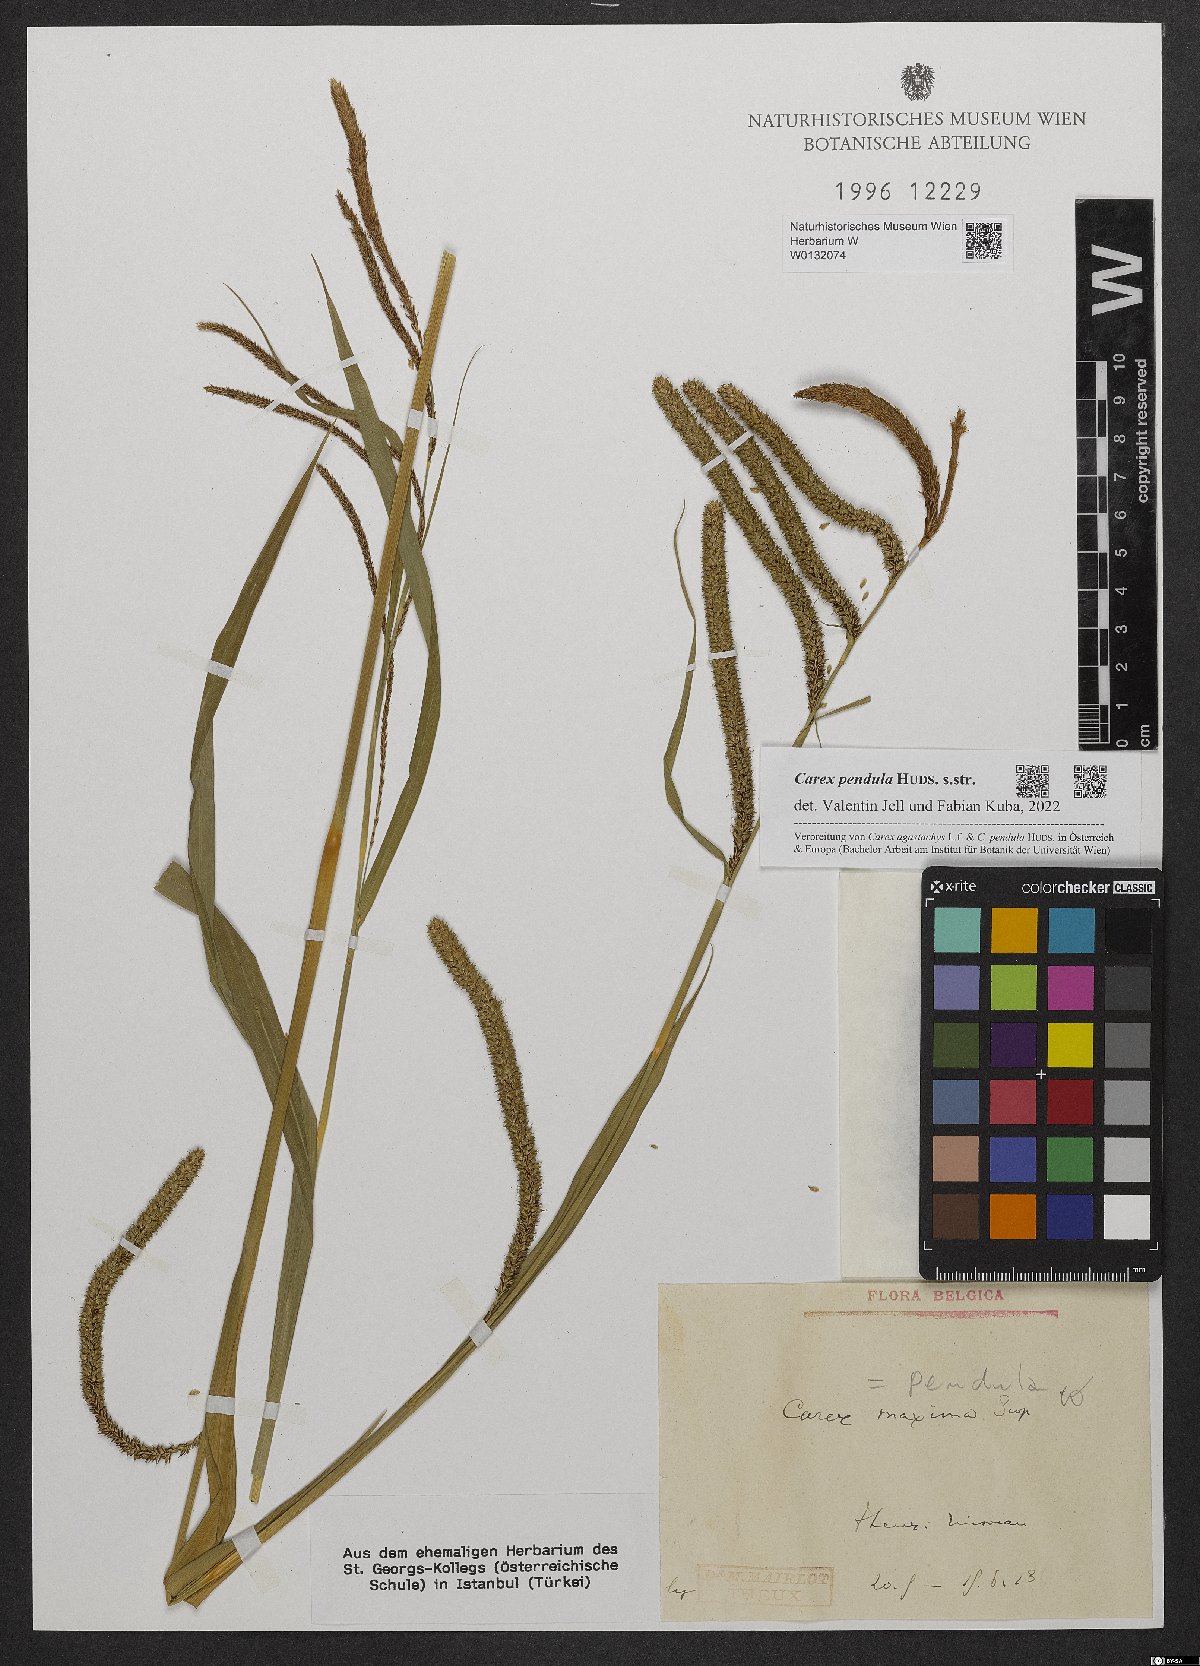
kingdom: Plantae
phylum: Tracheophyta
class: Liliopsida
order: Poales
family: Cyperaceae
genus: Carex
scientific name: Carex pendula
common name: Pendulous sedge
